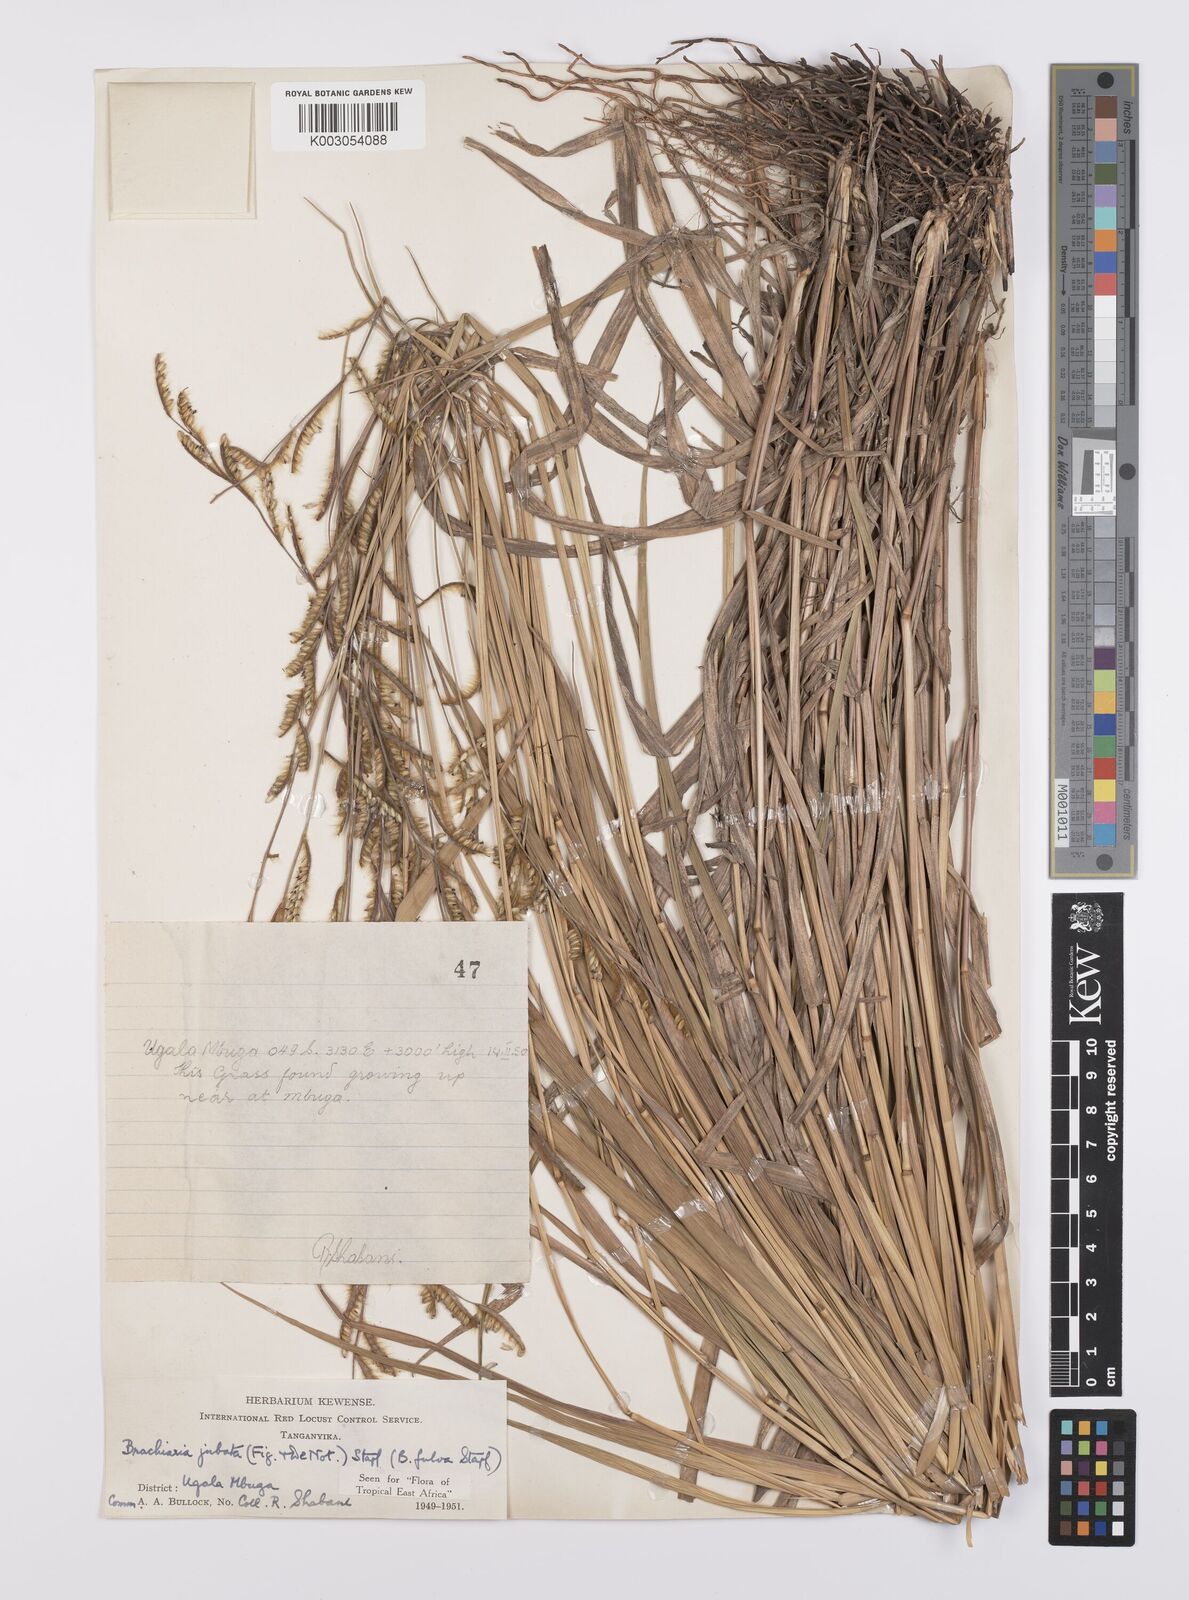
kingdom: Plantae
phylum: Tracheophyta
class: Liliopsida
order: Poales
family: Poaceae
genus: Urochloa
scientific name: Urochloa jubata
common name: Buffalograss
